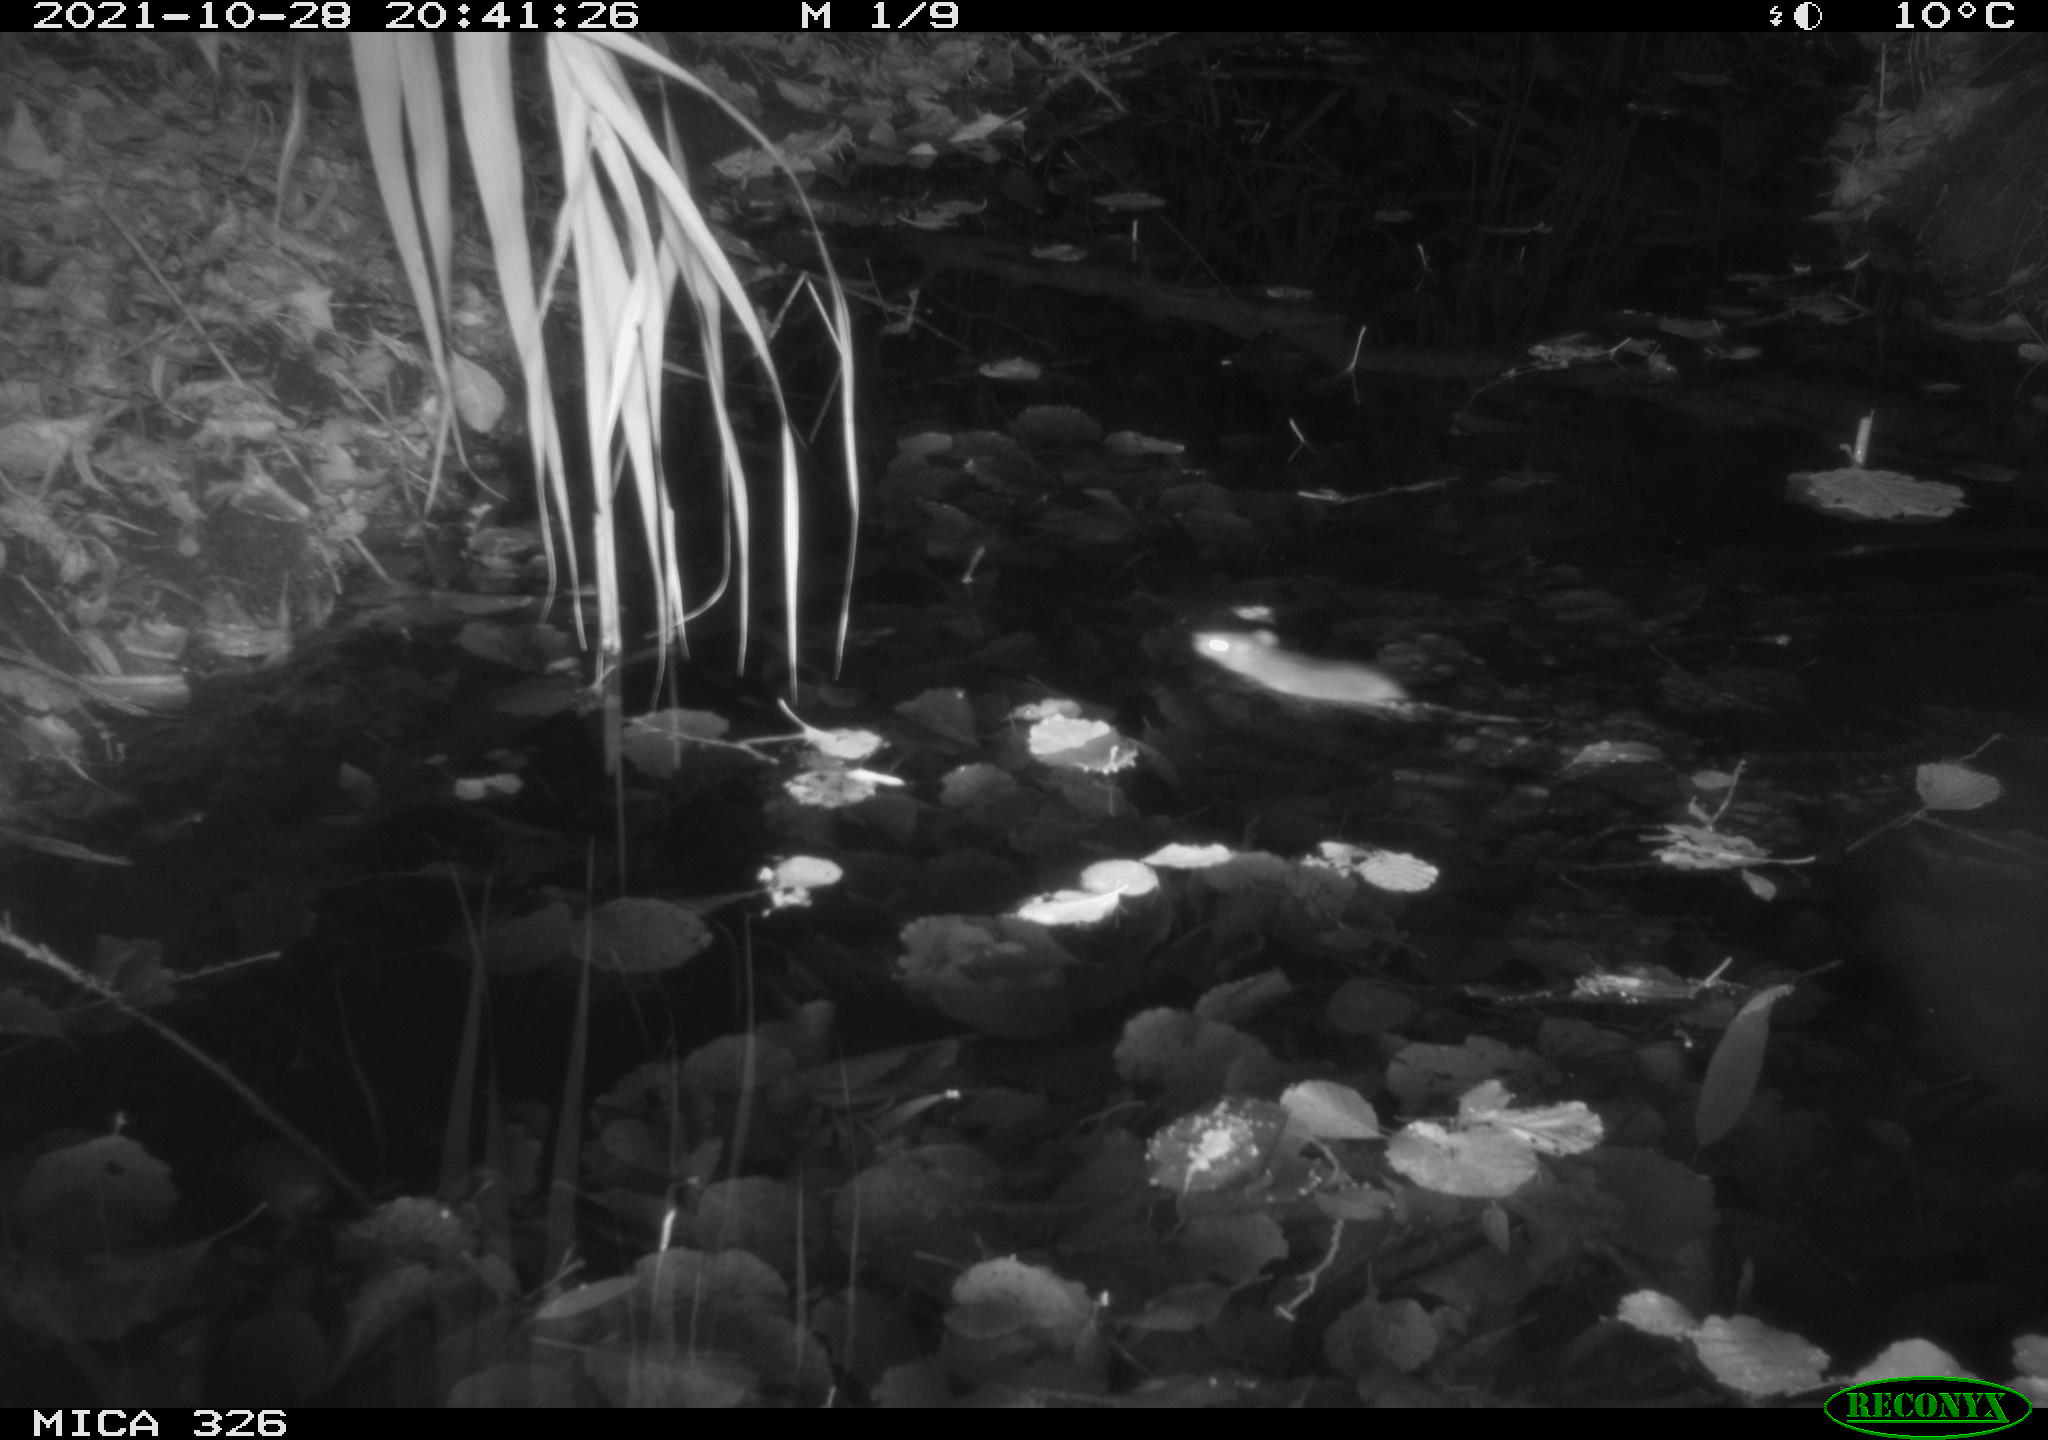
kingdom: Animalia
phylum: Chordata
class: Mammalia
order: Rodentia
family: Muridae
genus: Rattus
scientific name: Rattus norvegicus
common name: Brown rat
